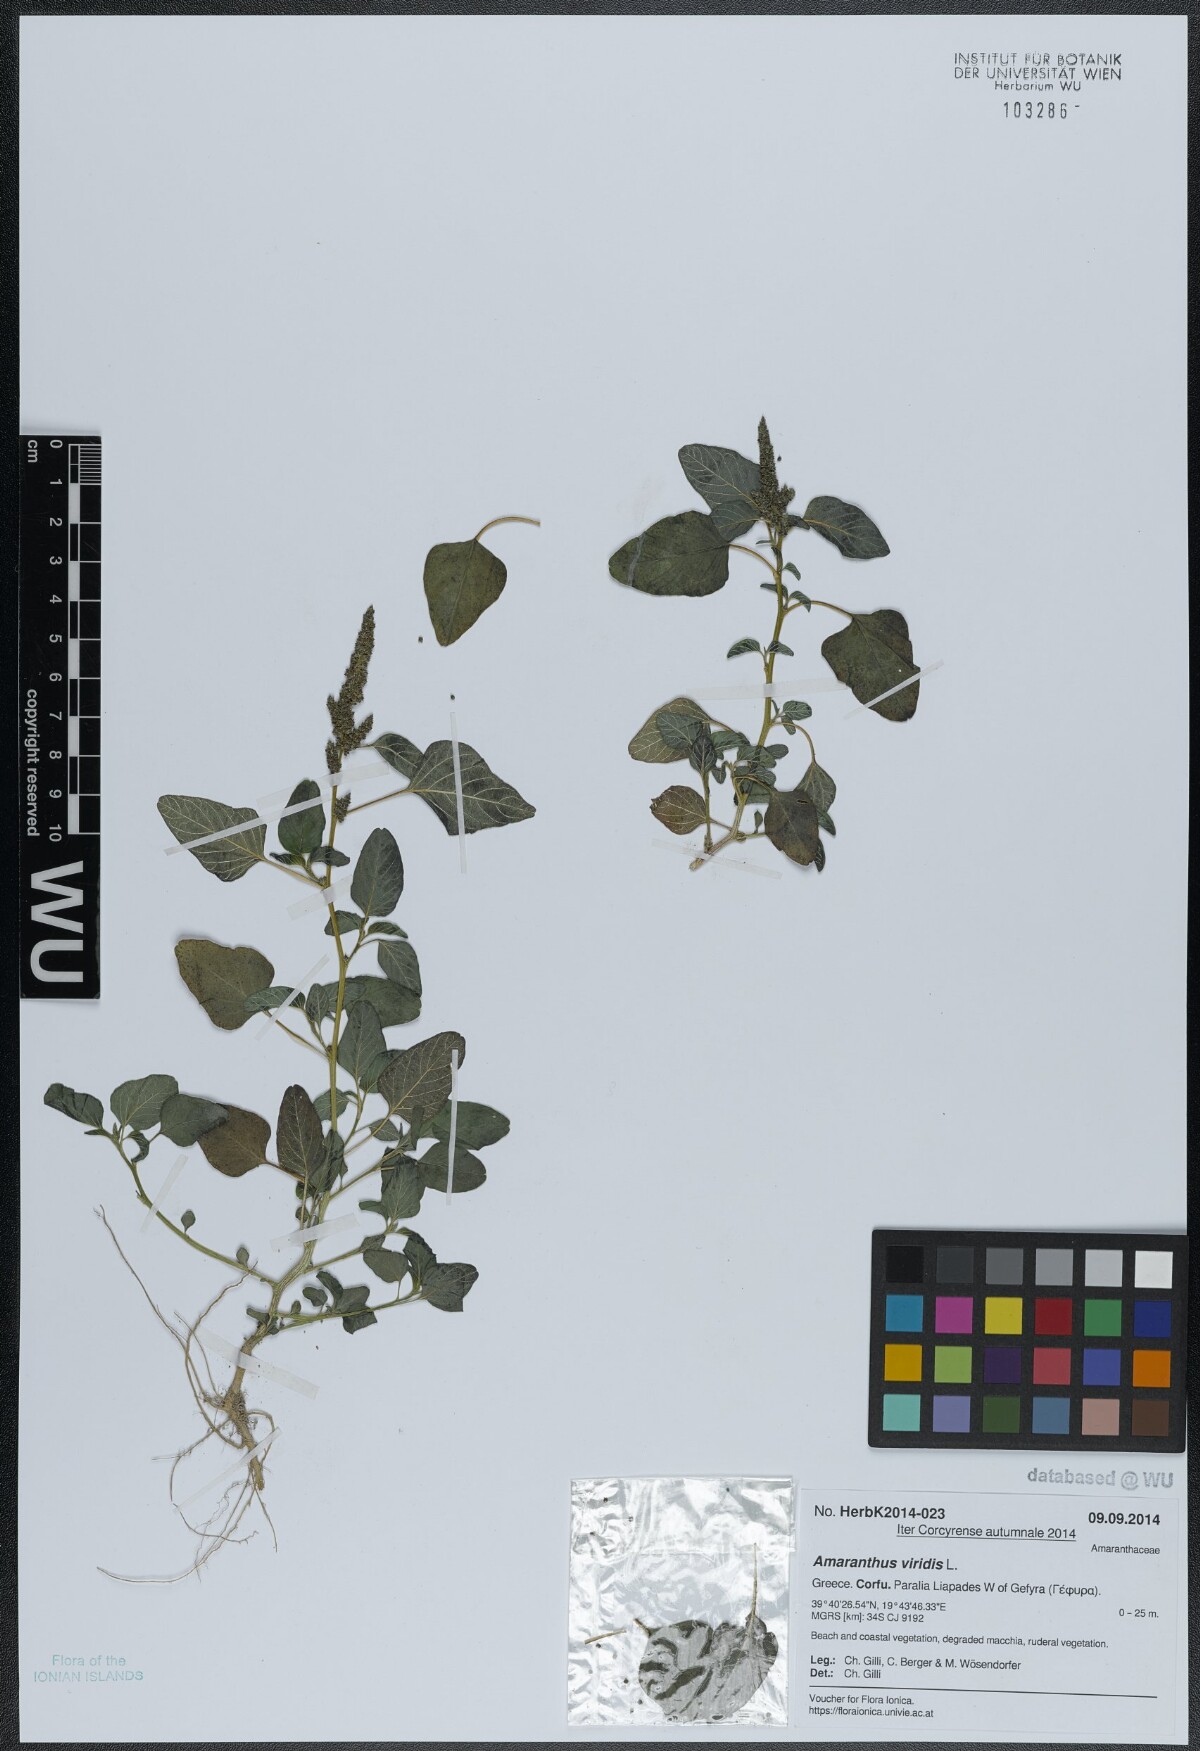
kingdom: Plantae
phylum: Tracheophyta
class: Magnoliopsida
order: Caryophyllales
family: Amaranthaceae
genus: Amaranthus
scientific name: Amaranthus viridis
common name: Slender amaranth
